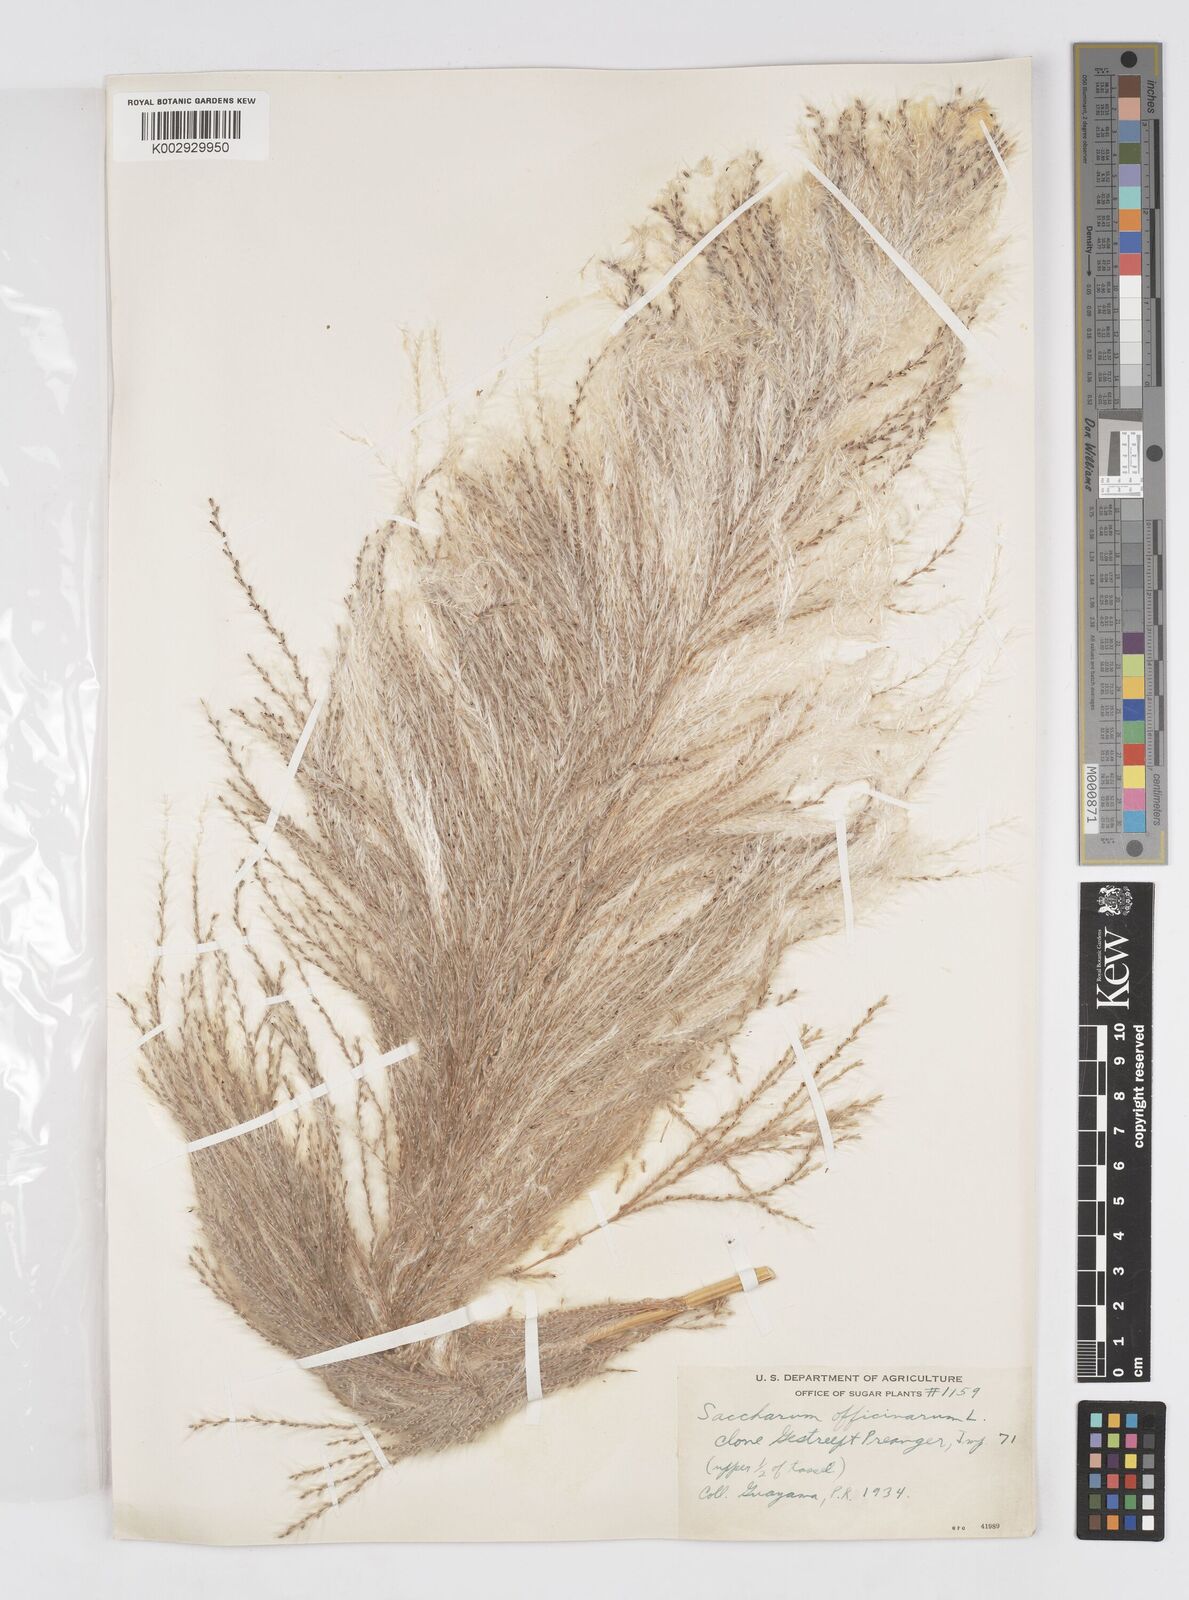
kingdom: Plantae
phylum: Tracheophyta
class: Liliopsida
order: Poales
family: Poaceae
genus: Saccharum
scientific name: Saccharum officinarum
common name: Sugarcane
